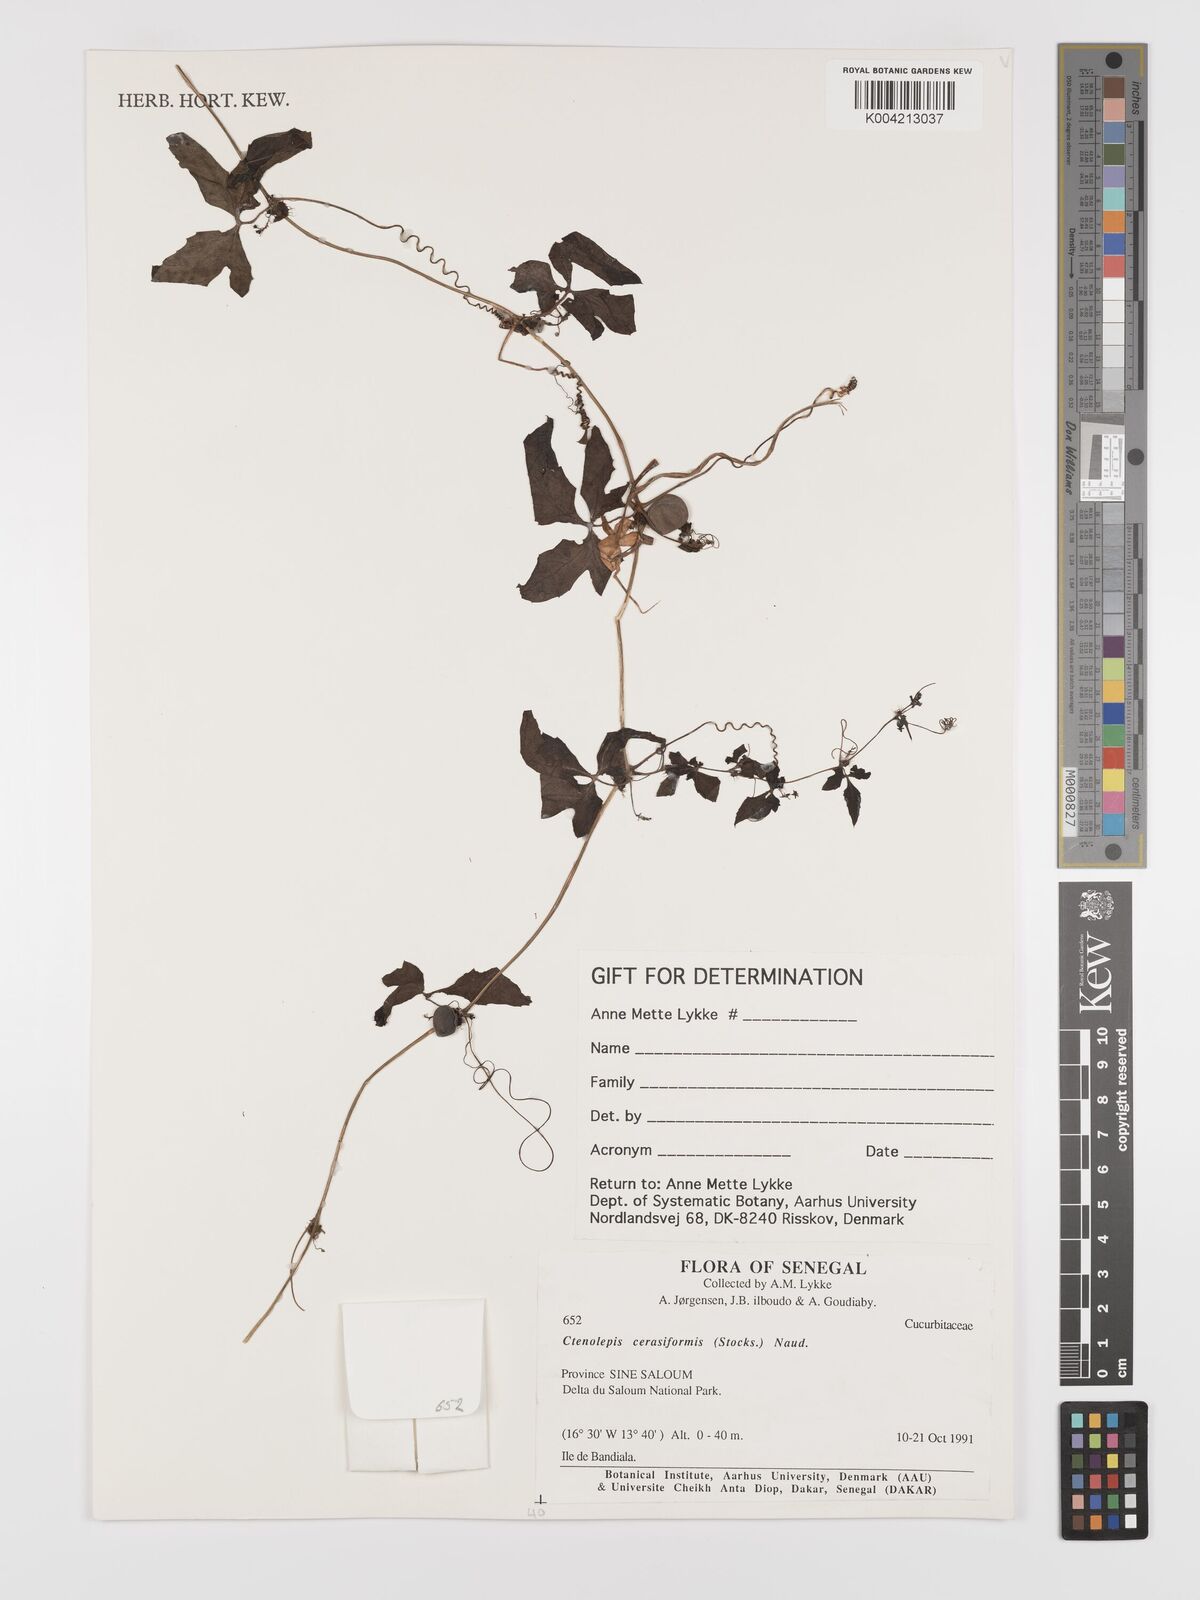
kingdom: Plantae
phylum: Tracheophyta
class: Magnoliopsida
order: Cucurbitales
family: Cucurbitaceae
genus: Blastania
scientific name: Blastania
